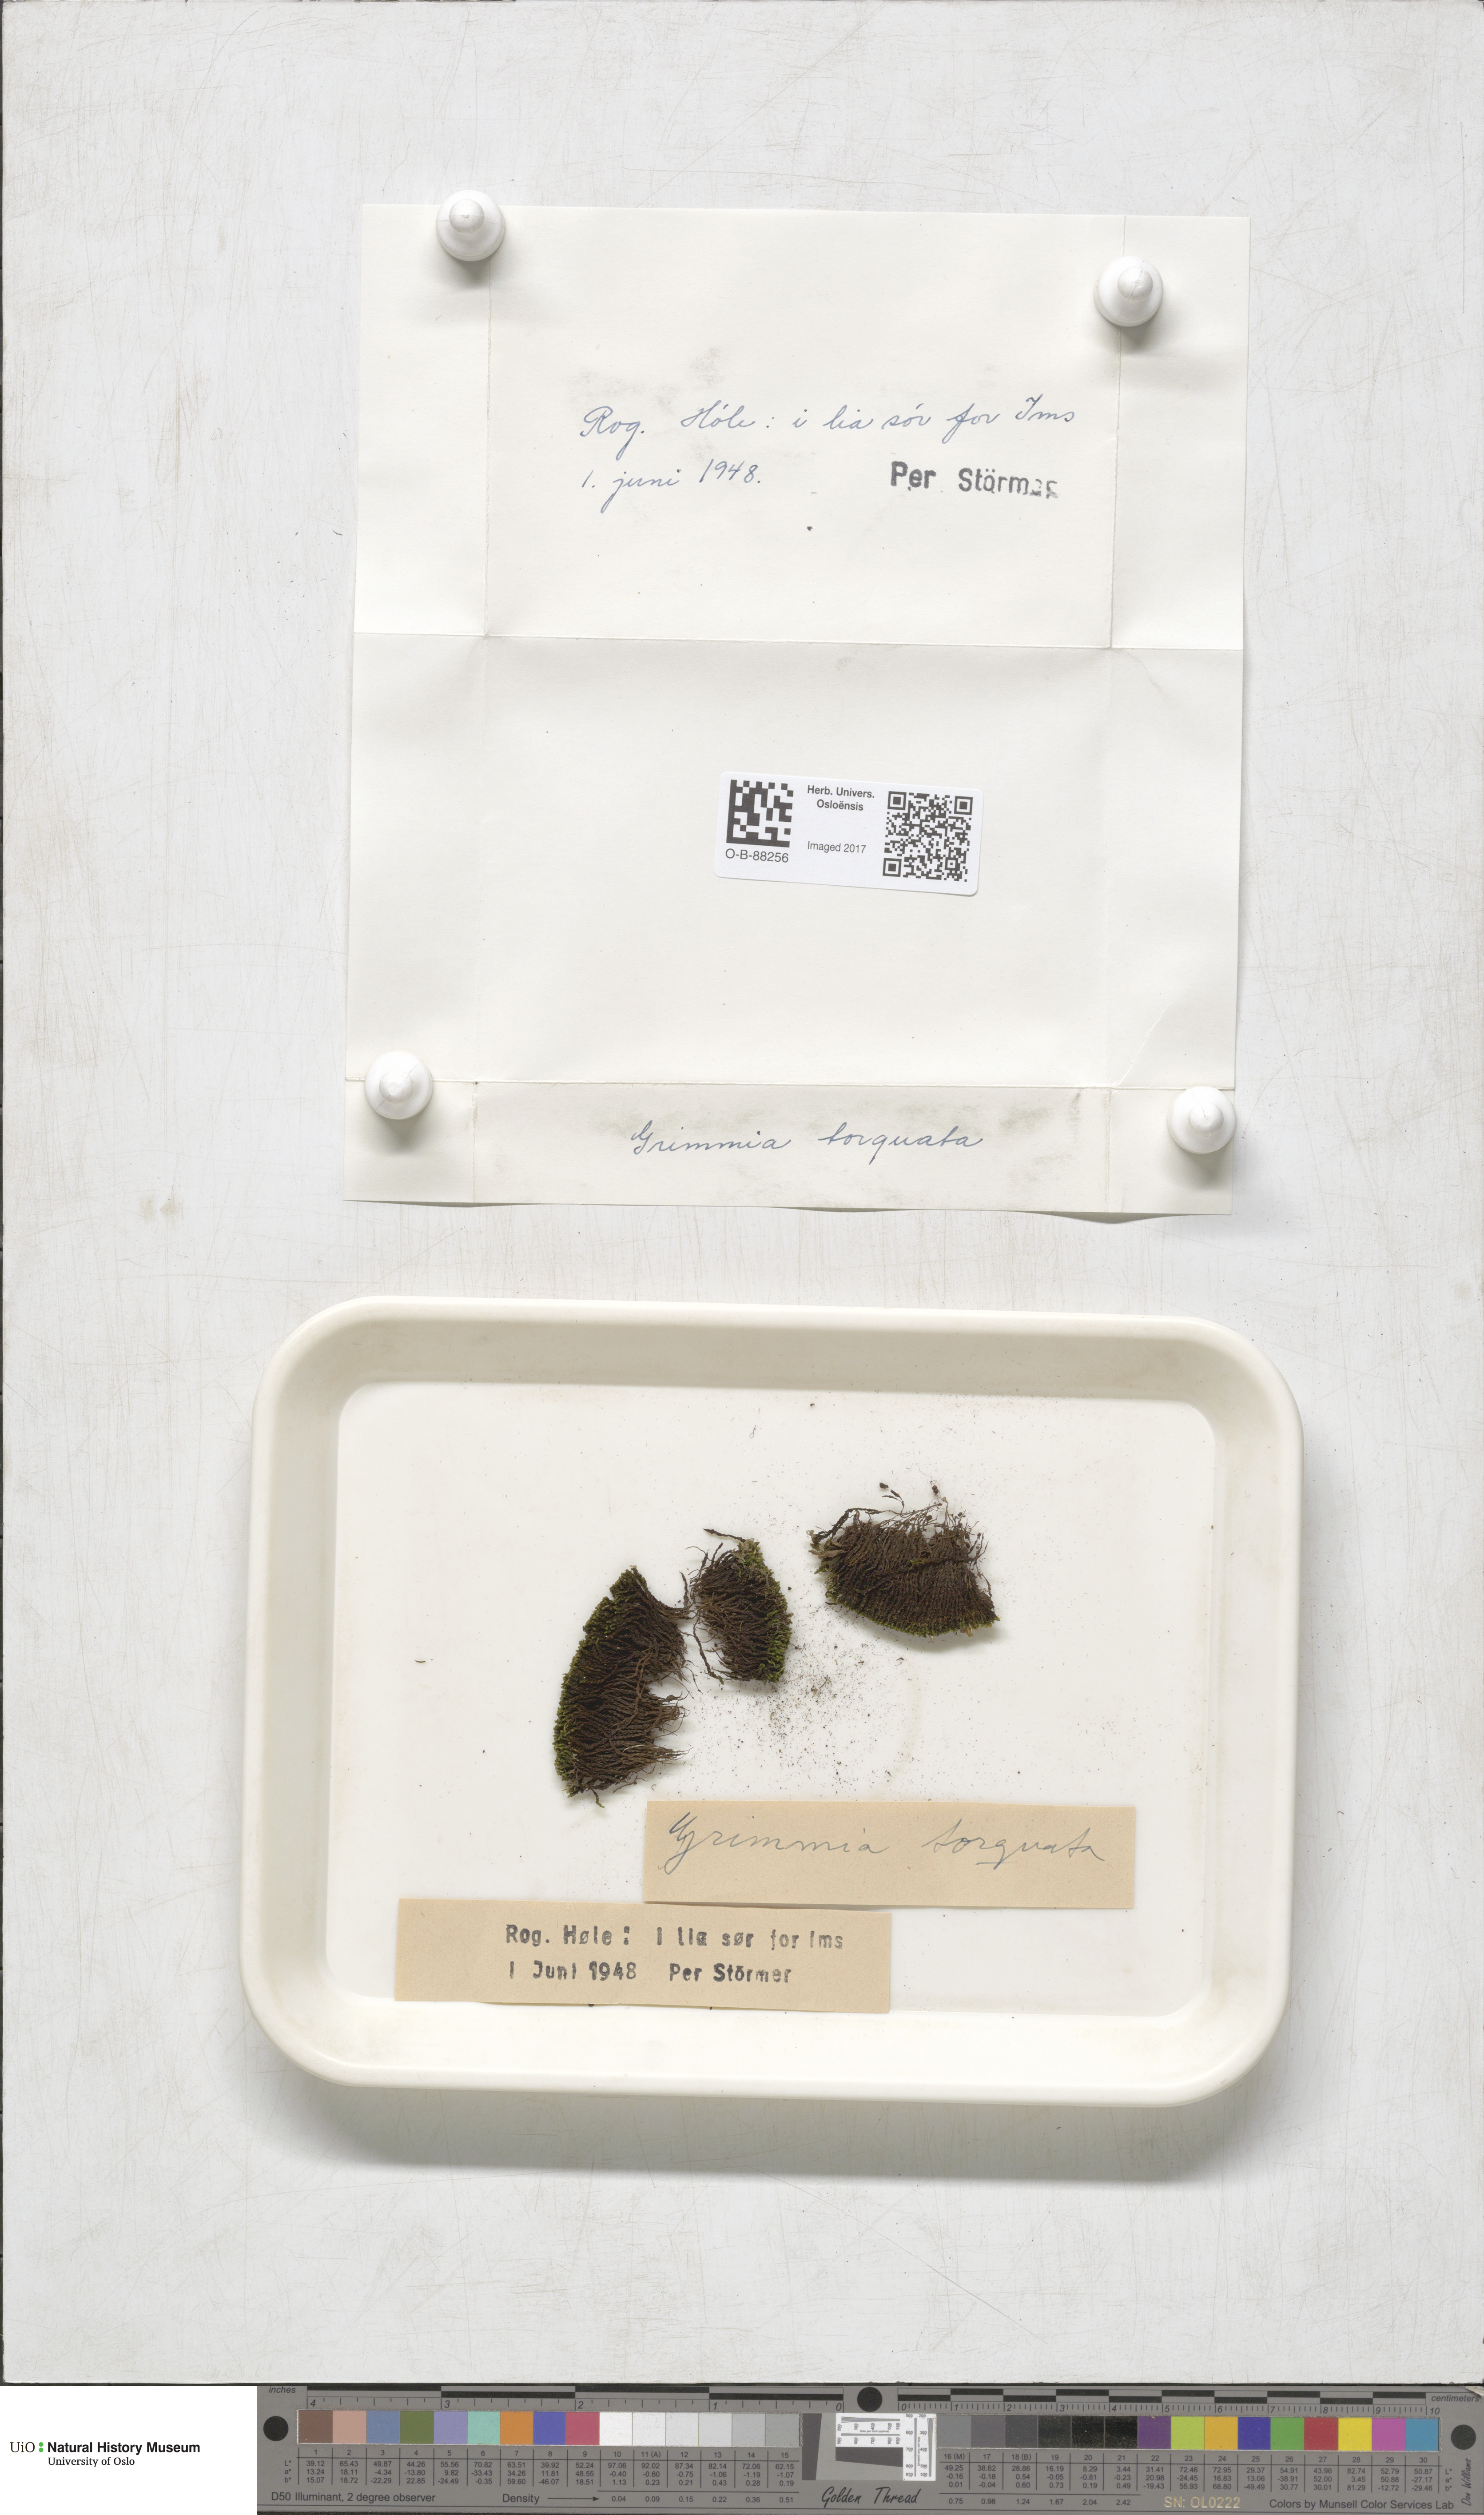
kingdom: Plantae
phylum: Bryophyta
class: Bryopsida
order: Grimmiales
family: Grimmiaceae
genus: Grimmia
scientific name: Grimmia torquata
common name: Twisted grimmia
